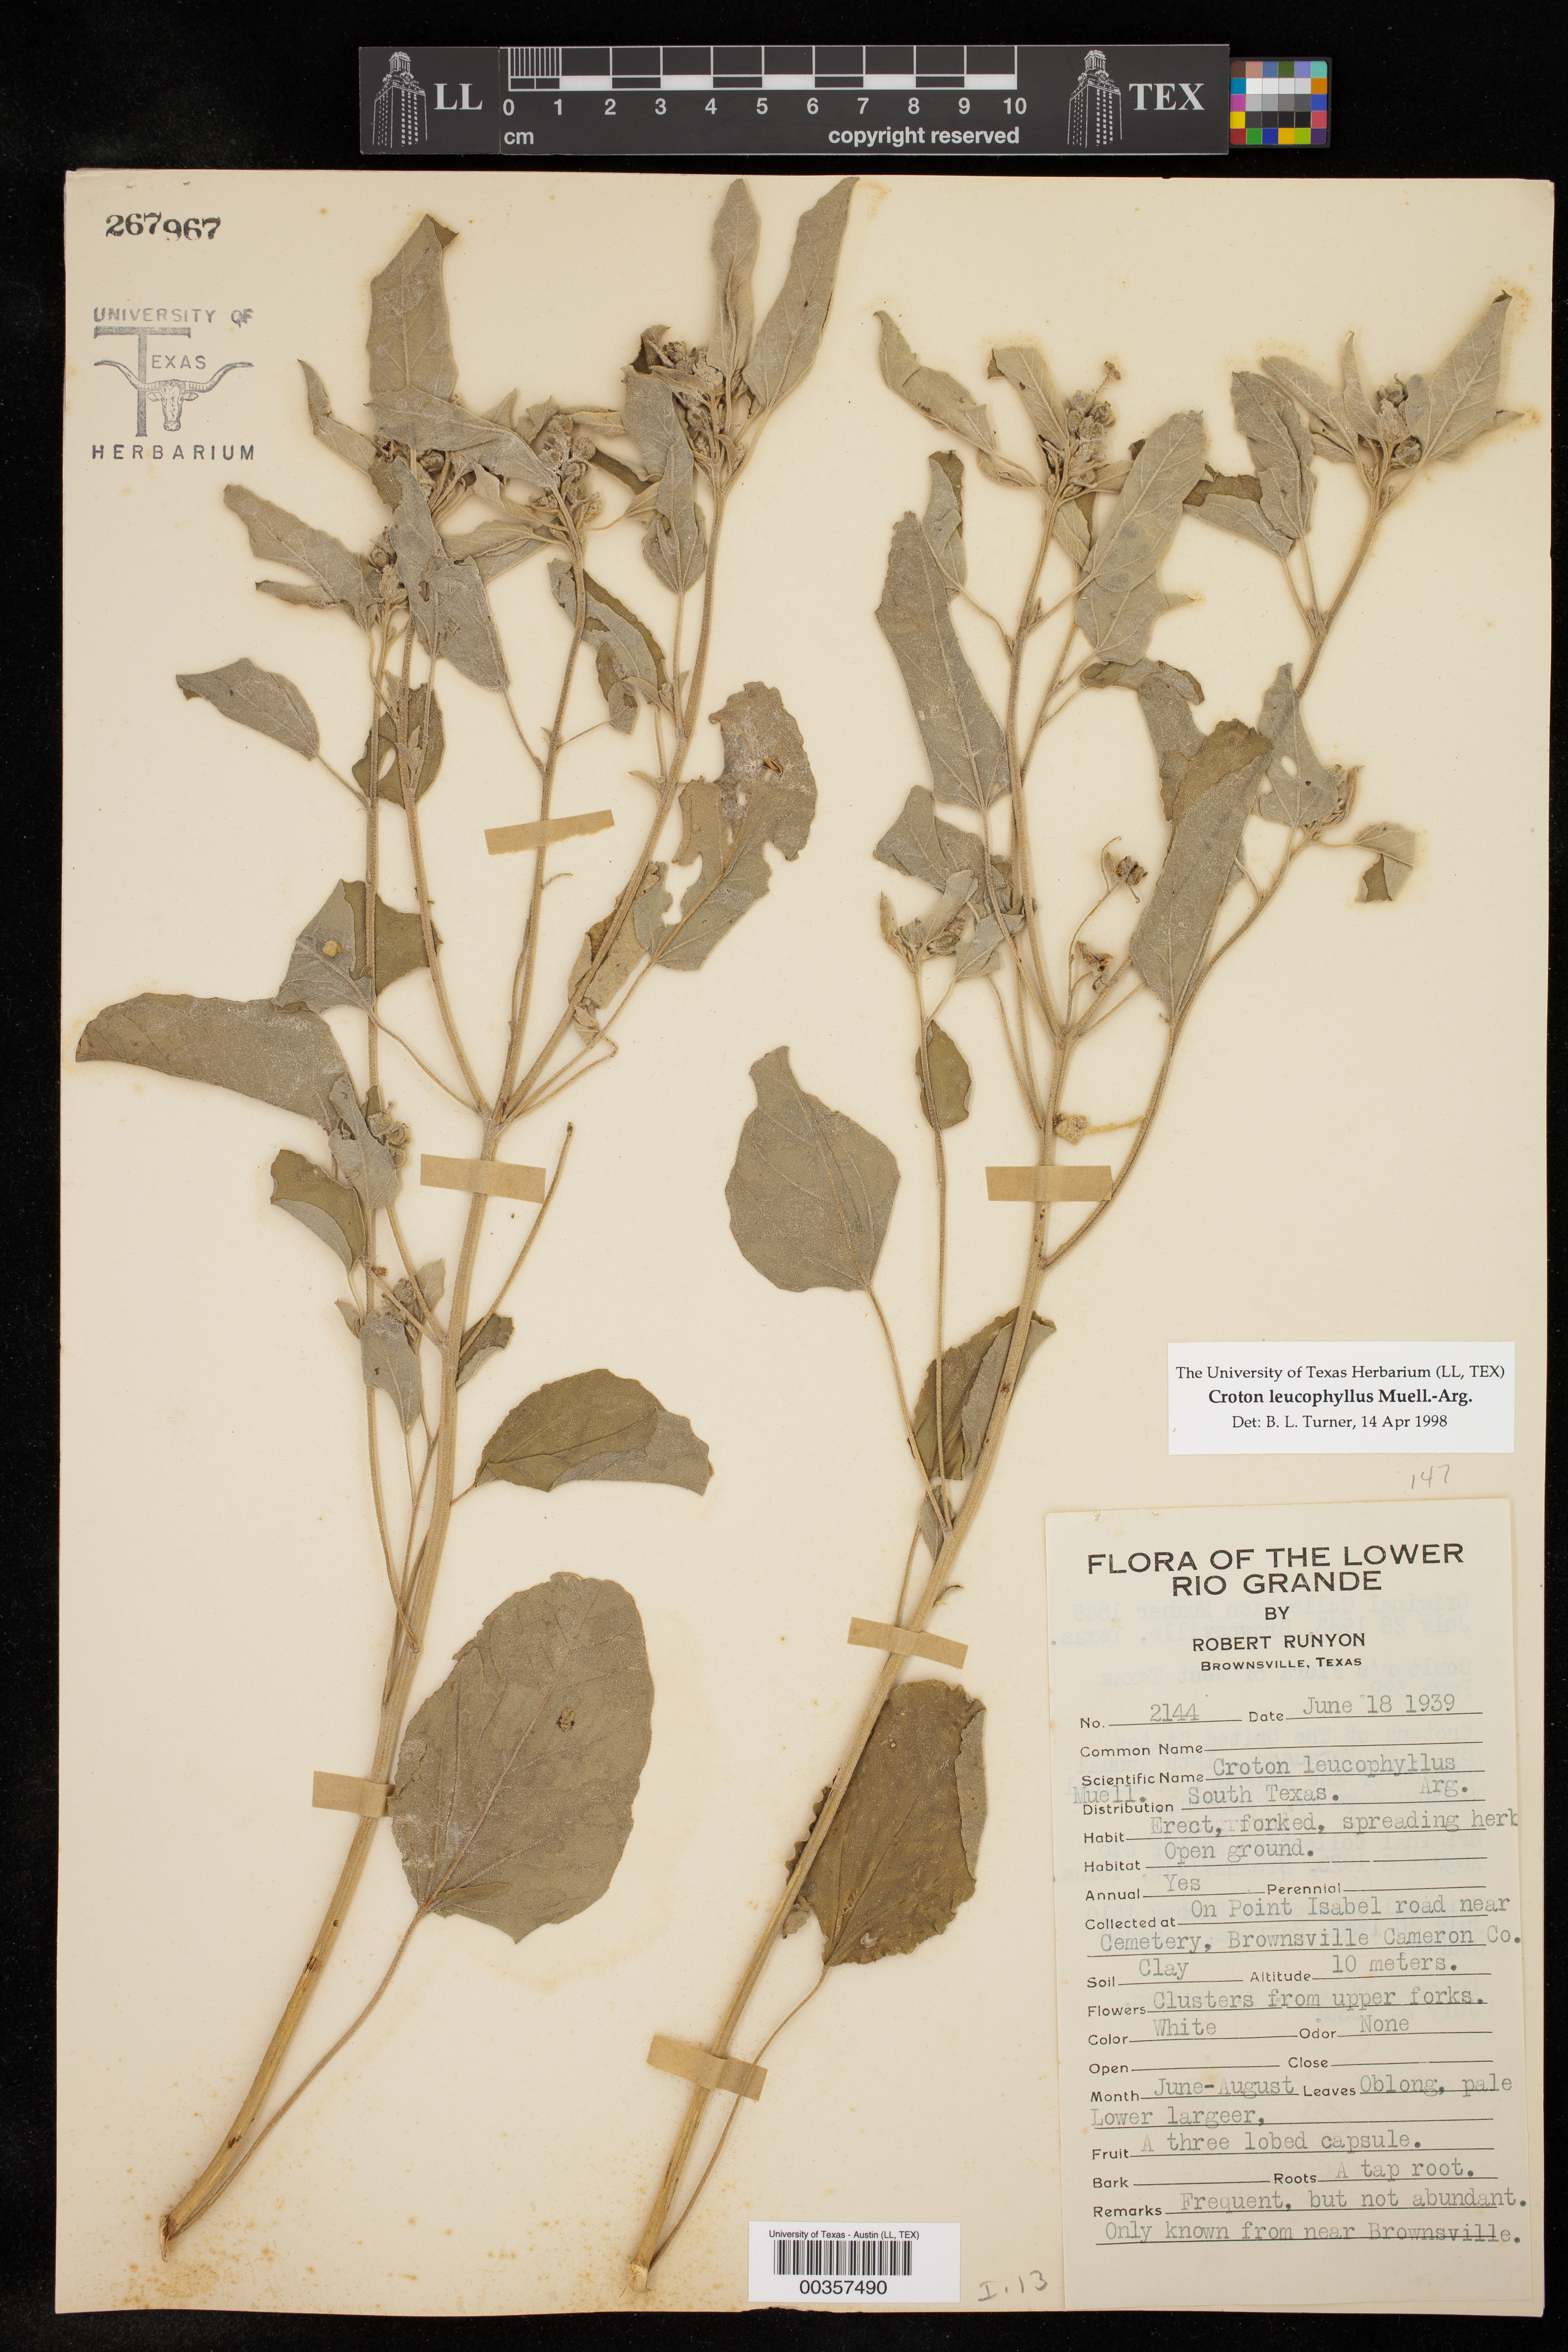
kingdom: Plantae
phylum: Tracheophyta
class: Magnoliopsida
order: Malpighiales
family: Euphorbiaceae
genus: Croton
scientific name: Croton leucophyllus
